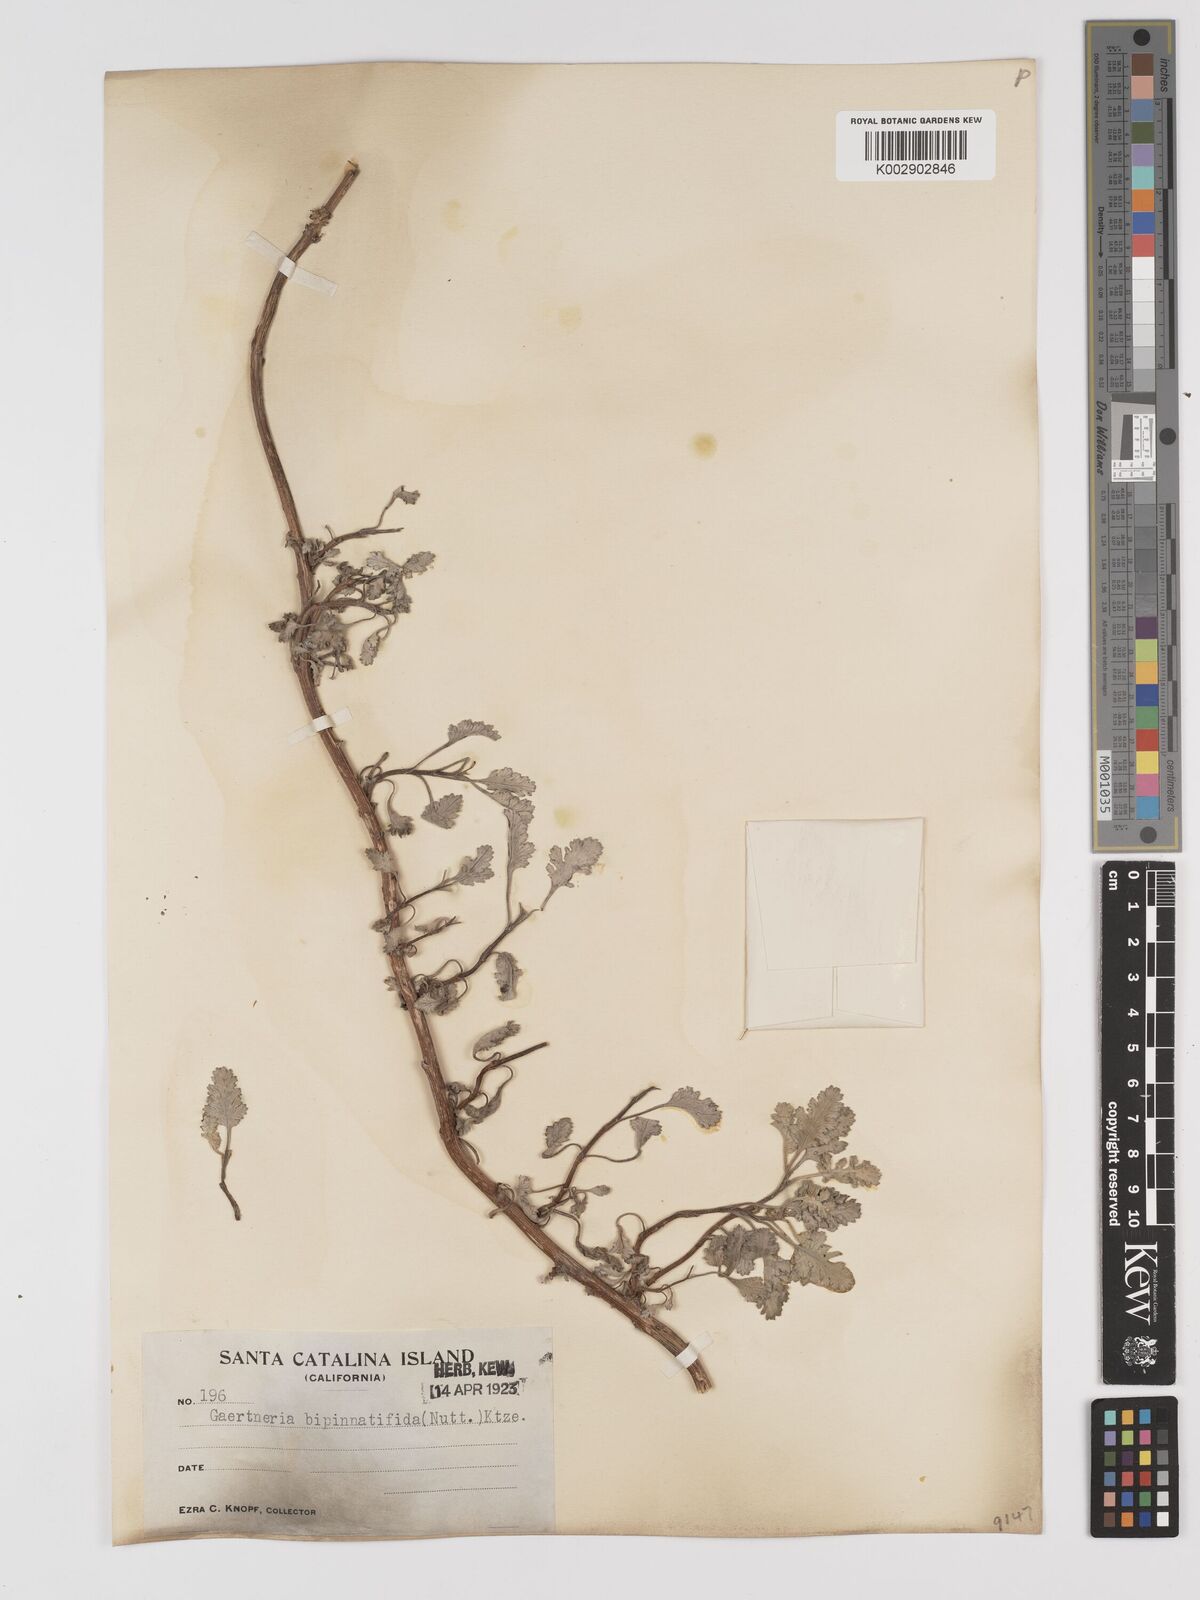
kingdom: Plantae
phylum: Tracheophyta
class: Magnoliopsida
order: Asterales
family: Asteraceae
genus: Ambrosia
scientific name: Ambrosia camphorata
